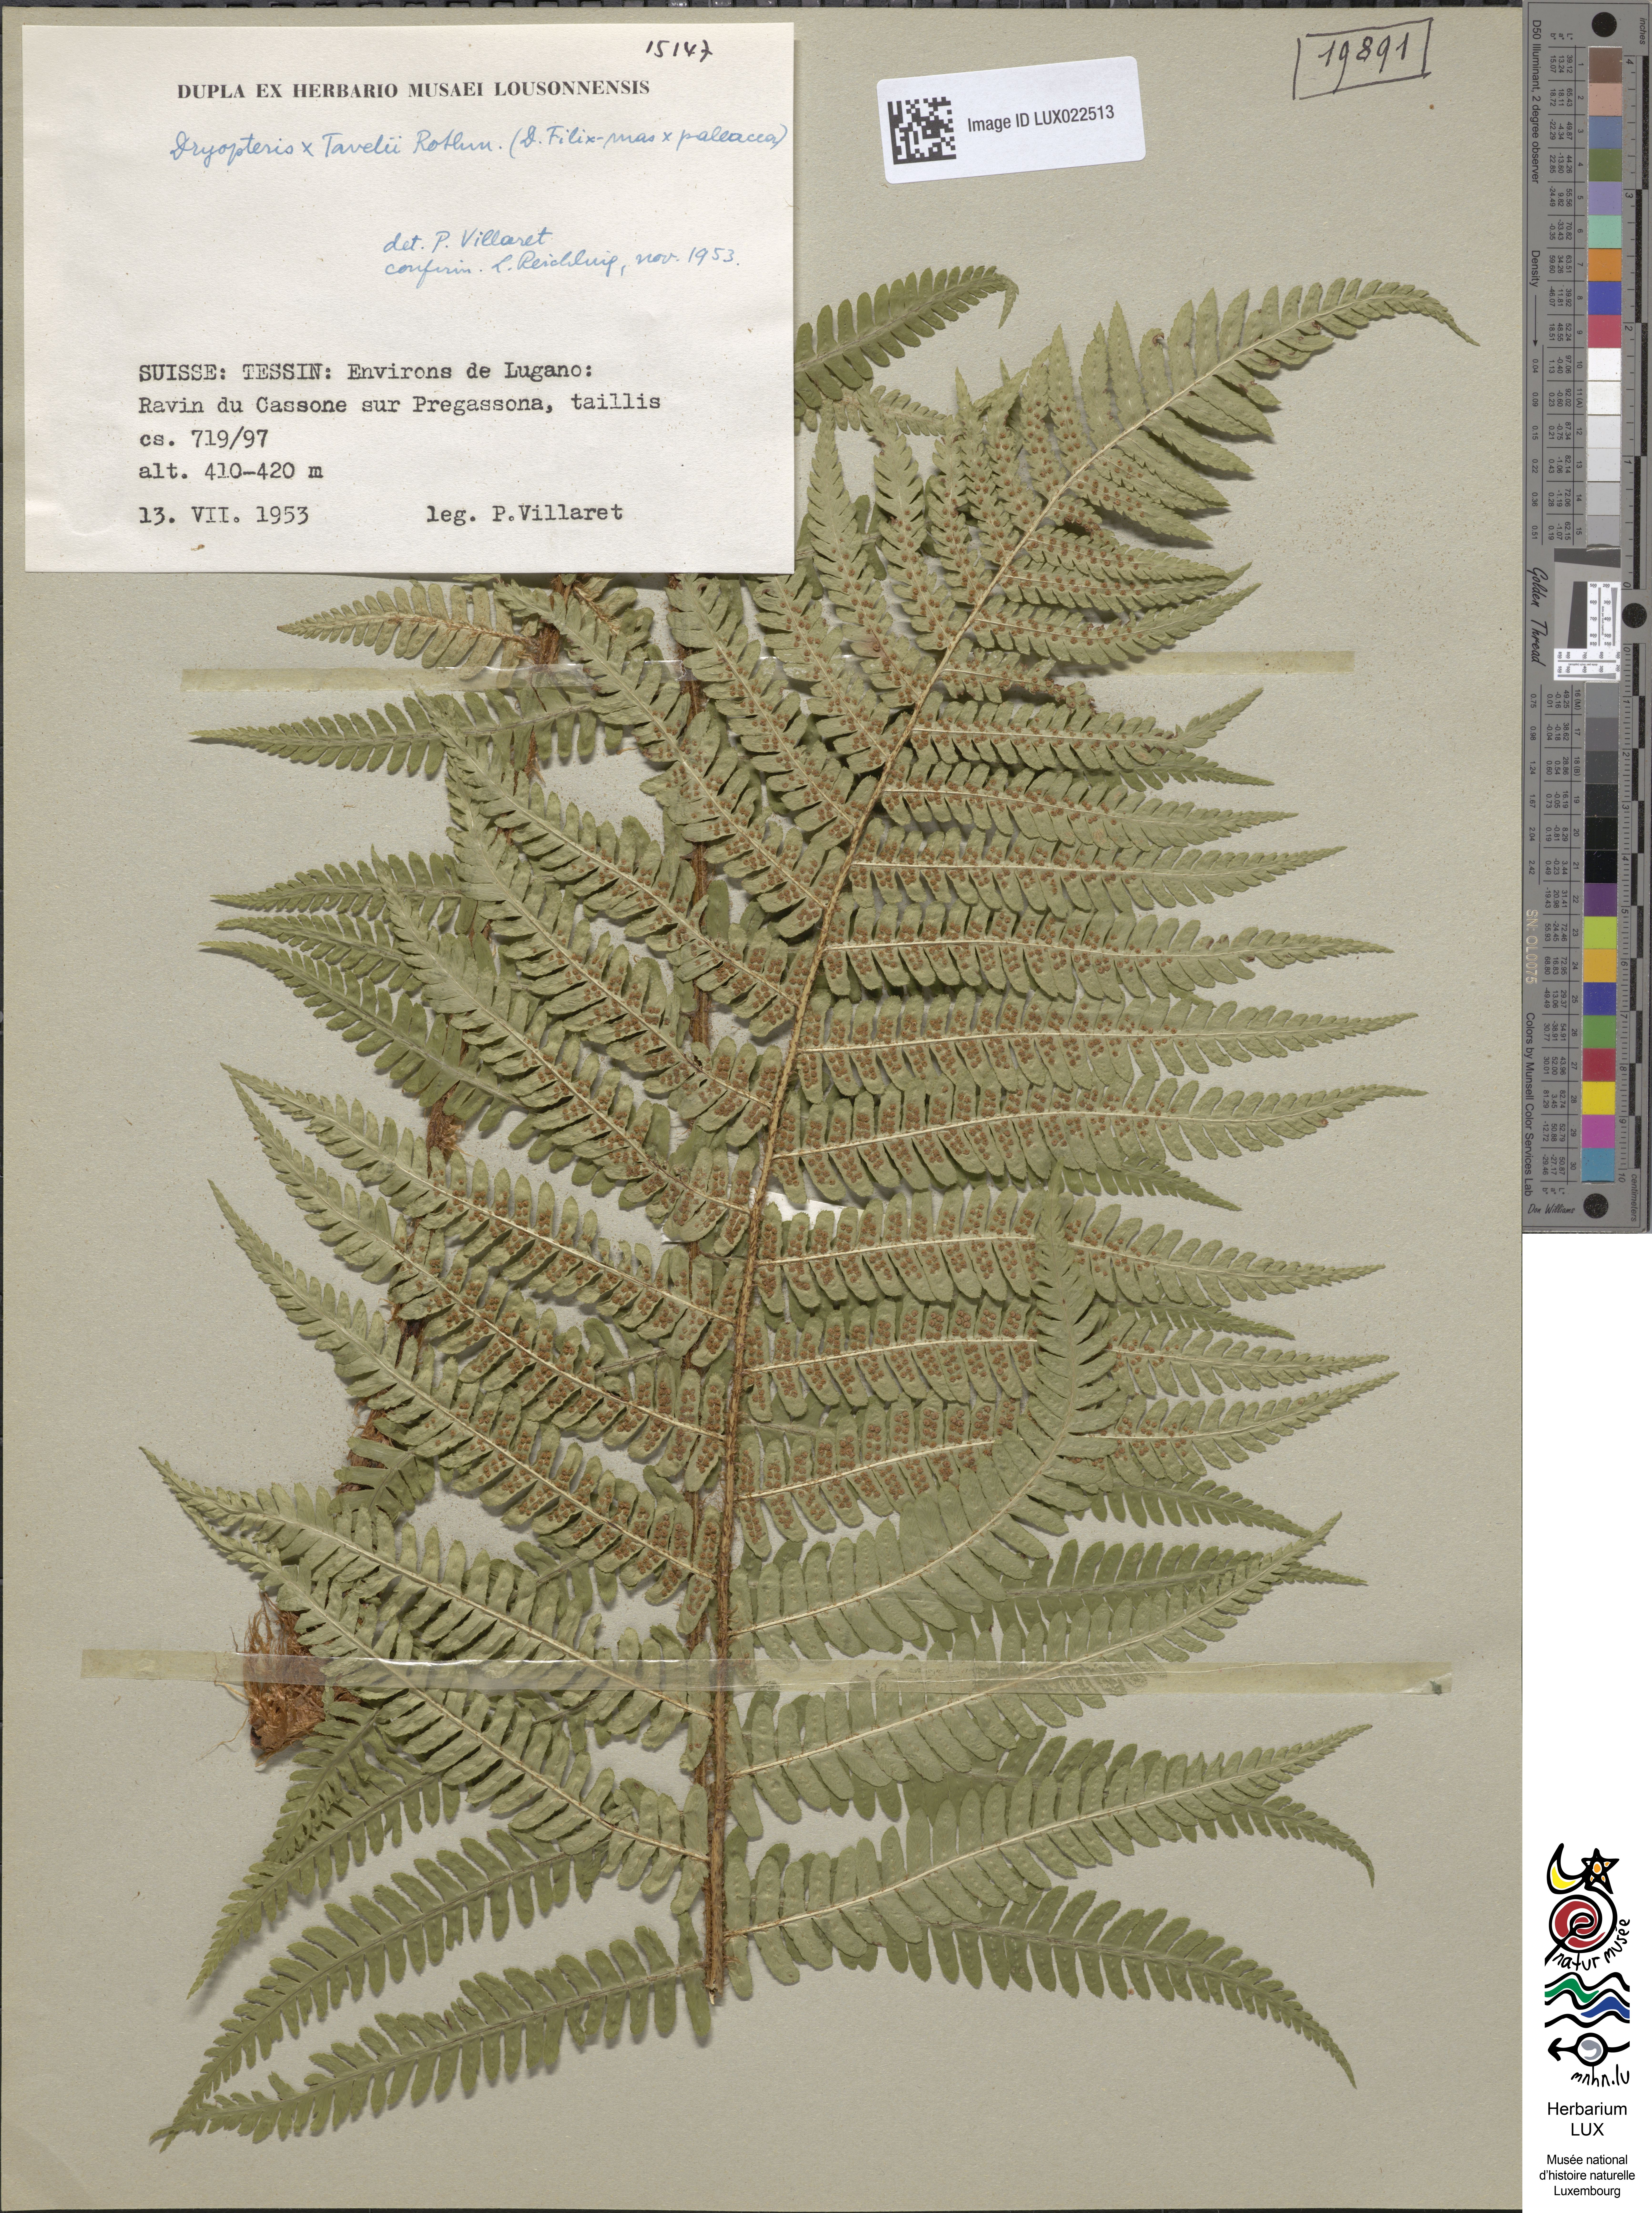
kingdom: Plantae
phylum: Tracheophyta
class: Polypodiopsida
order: Polypodiales
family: Dryopteridaceae
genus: Dryopteris
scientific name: Dryopteris borreri
